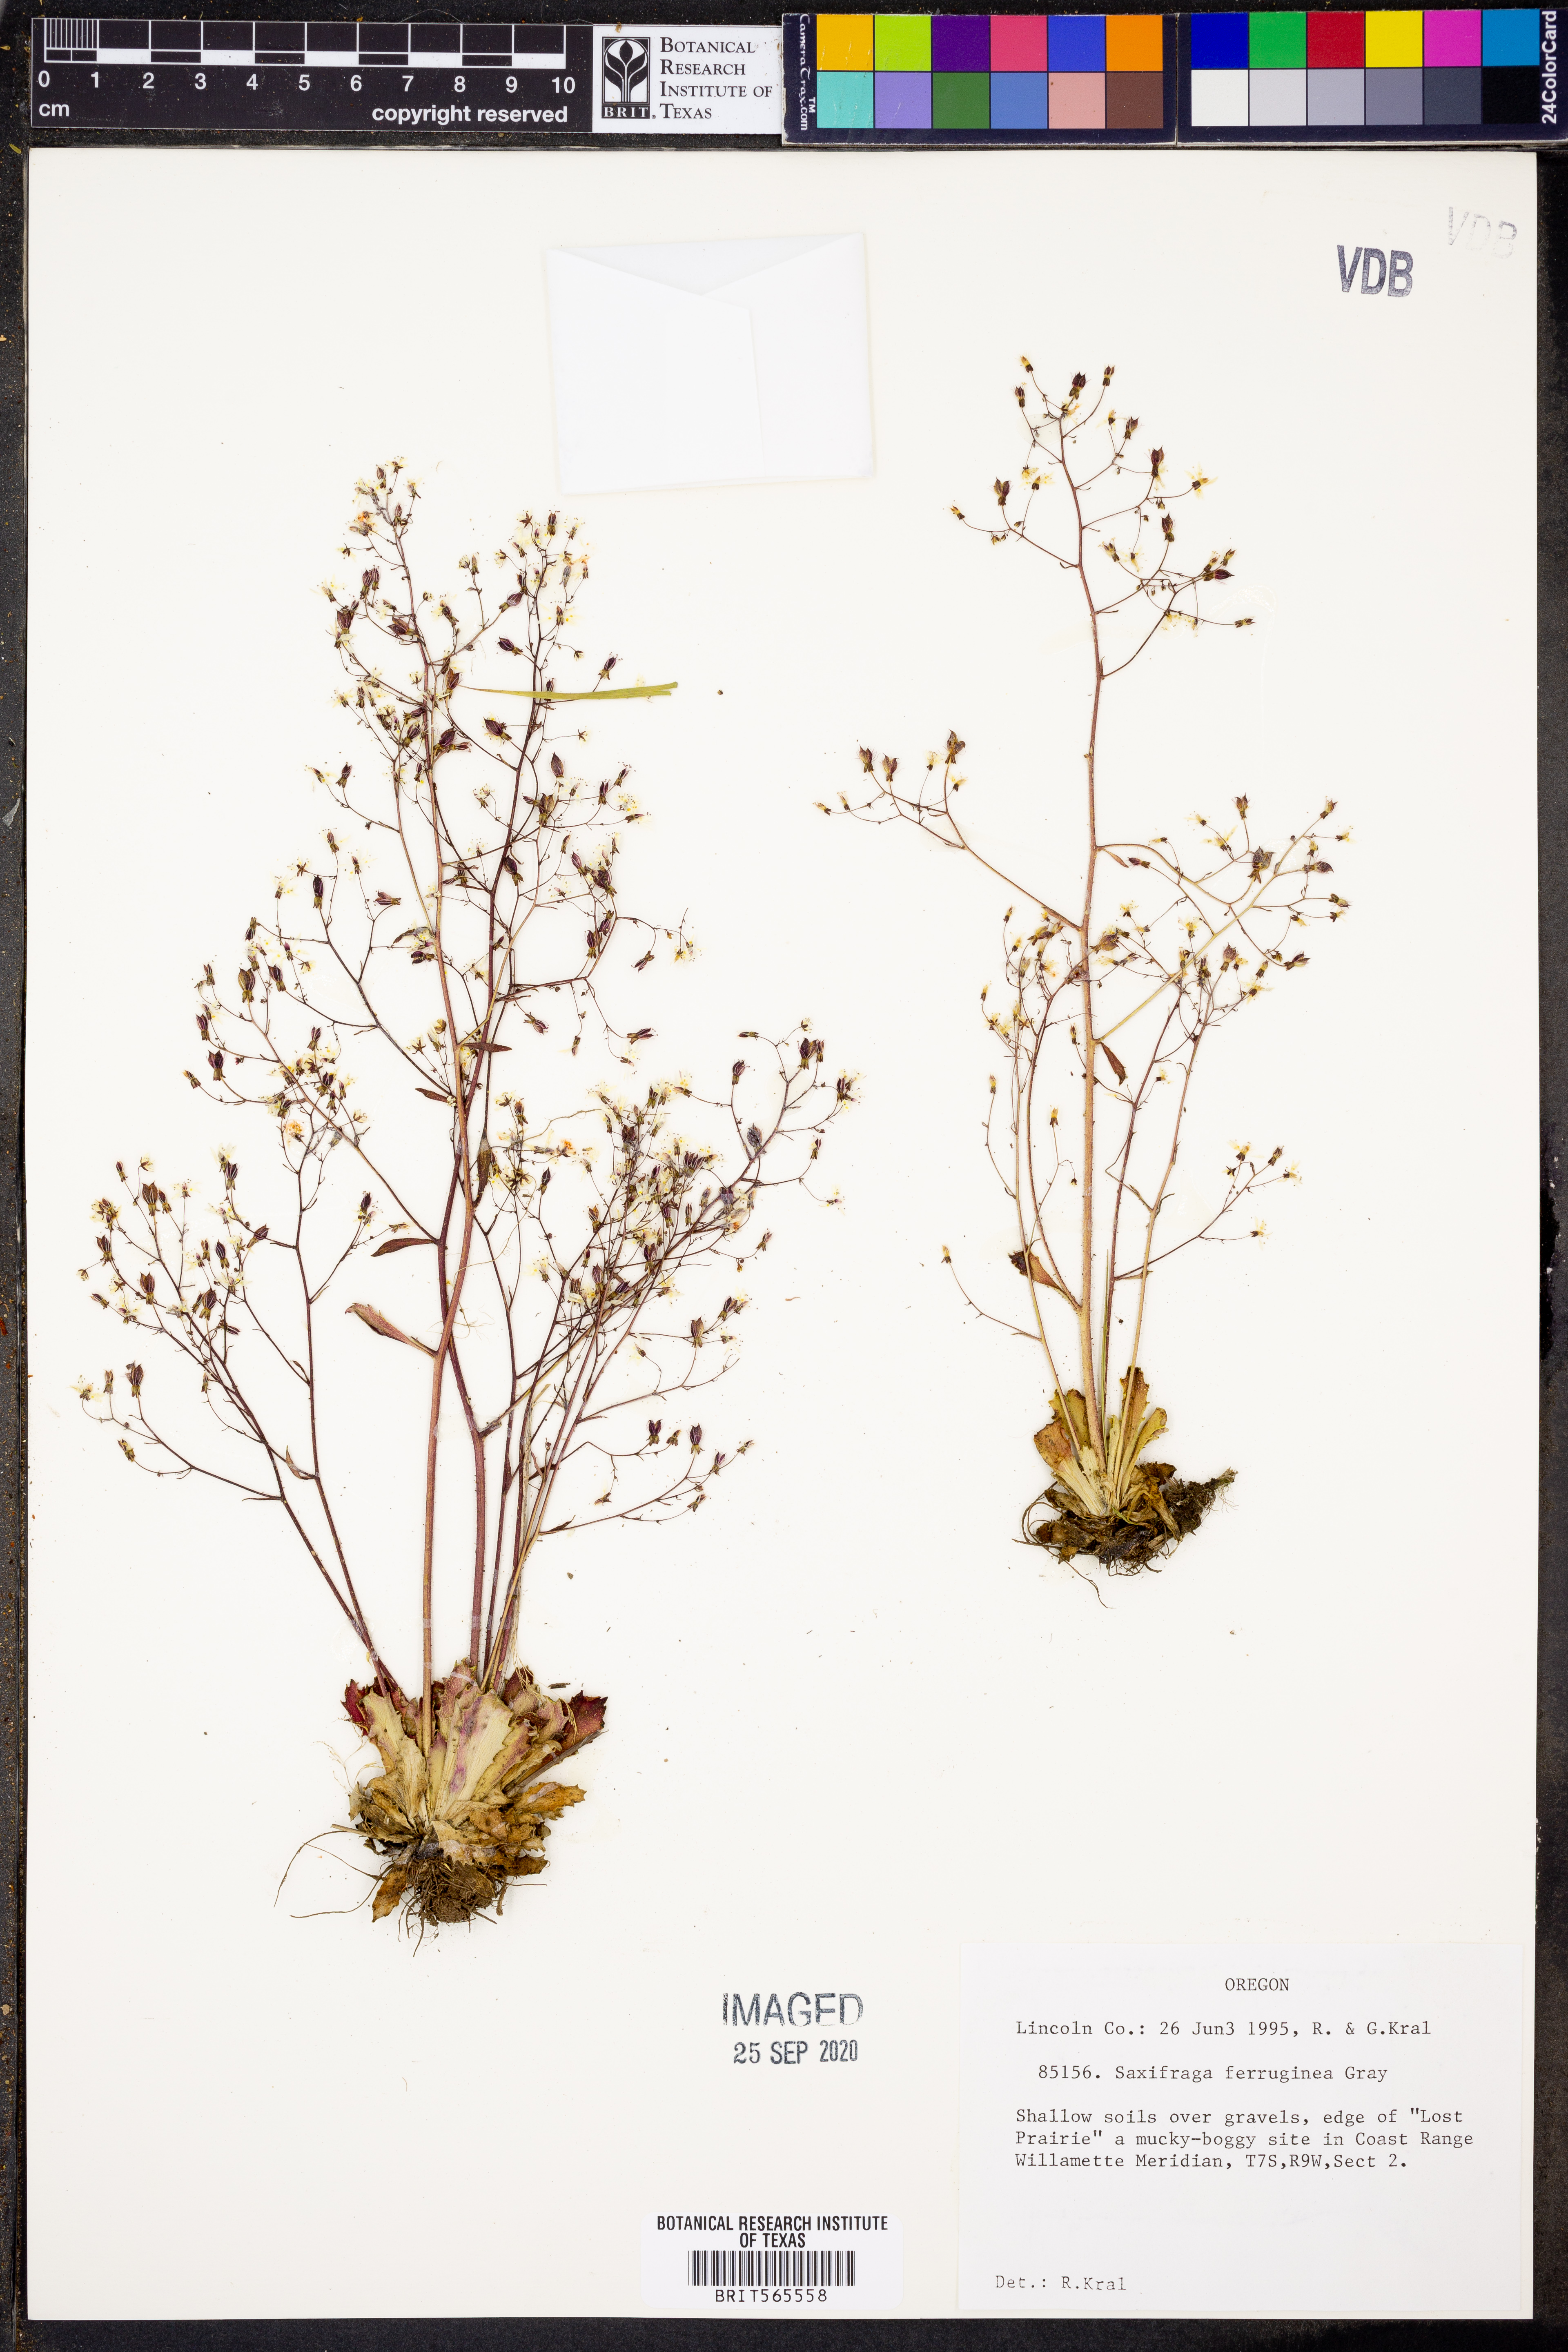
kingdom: Plantae
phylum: Tracheophyta
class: Magnoliopsida
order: Saxifragales
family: Saxifragaceae
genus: Micranthes
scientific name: Micranthes ferruginea
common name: Rusty saxifrage
